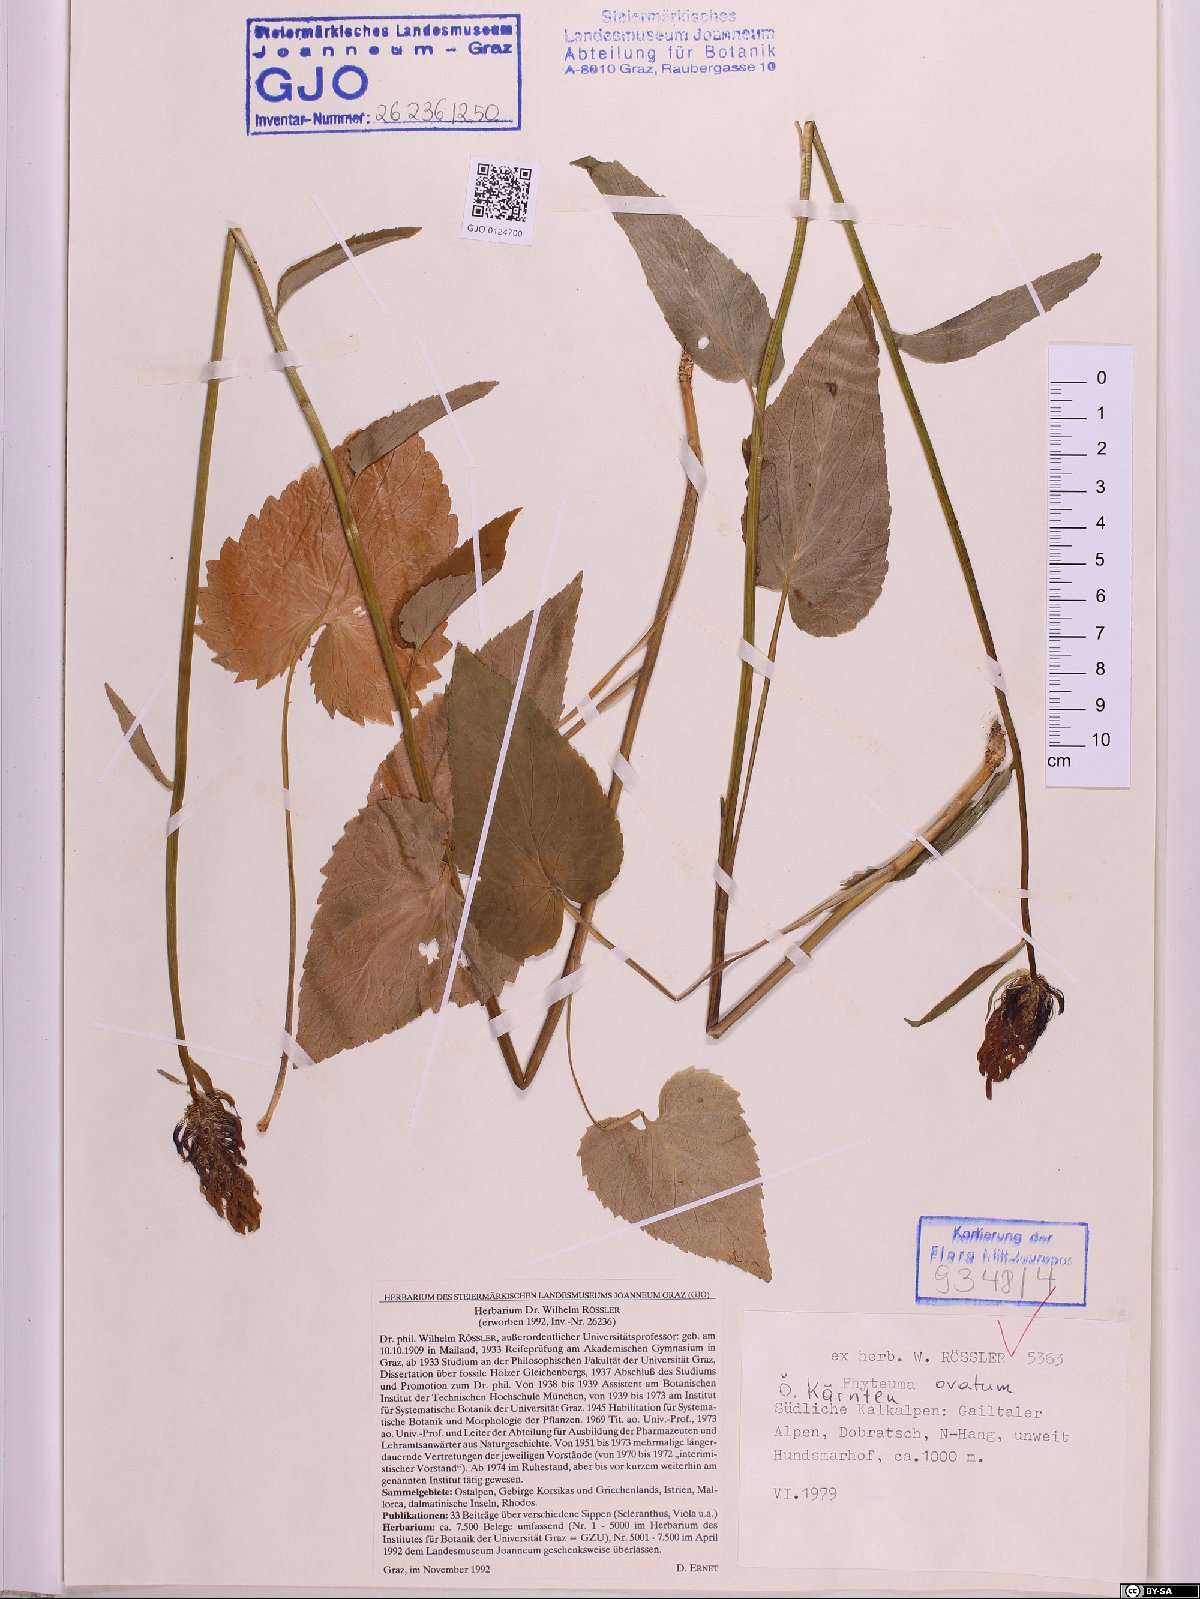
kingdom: Plantae
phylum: Tracheophyta
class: Magnoliopsida
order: Asterales
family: Campanulaceae
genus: Phyteuma
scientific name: Phyteuma ovatum
